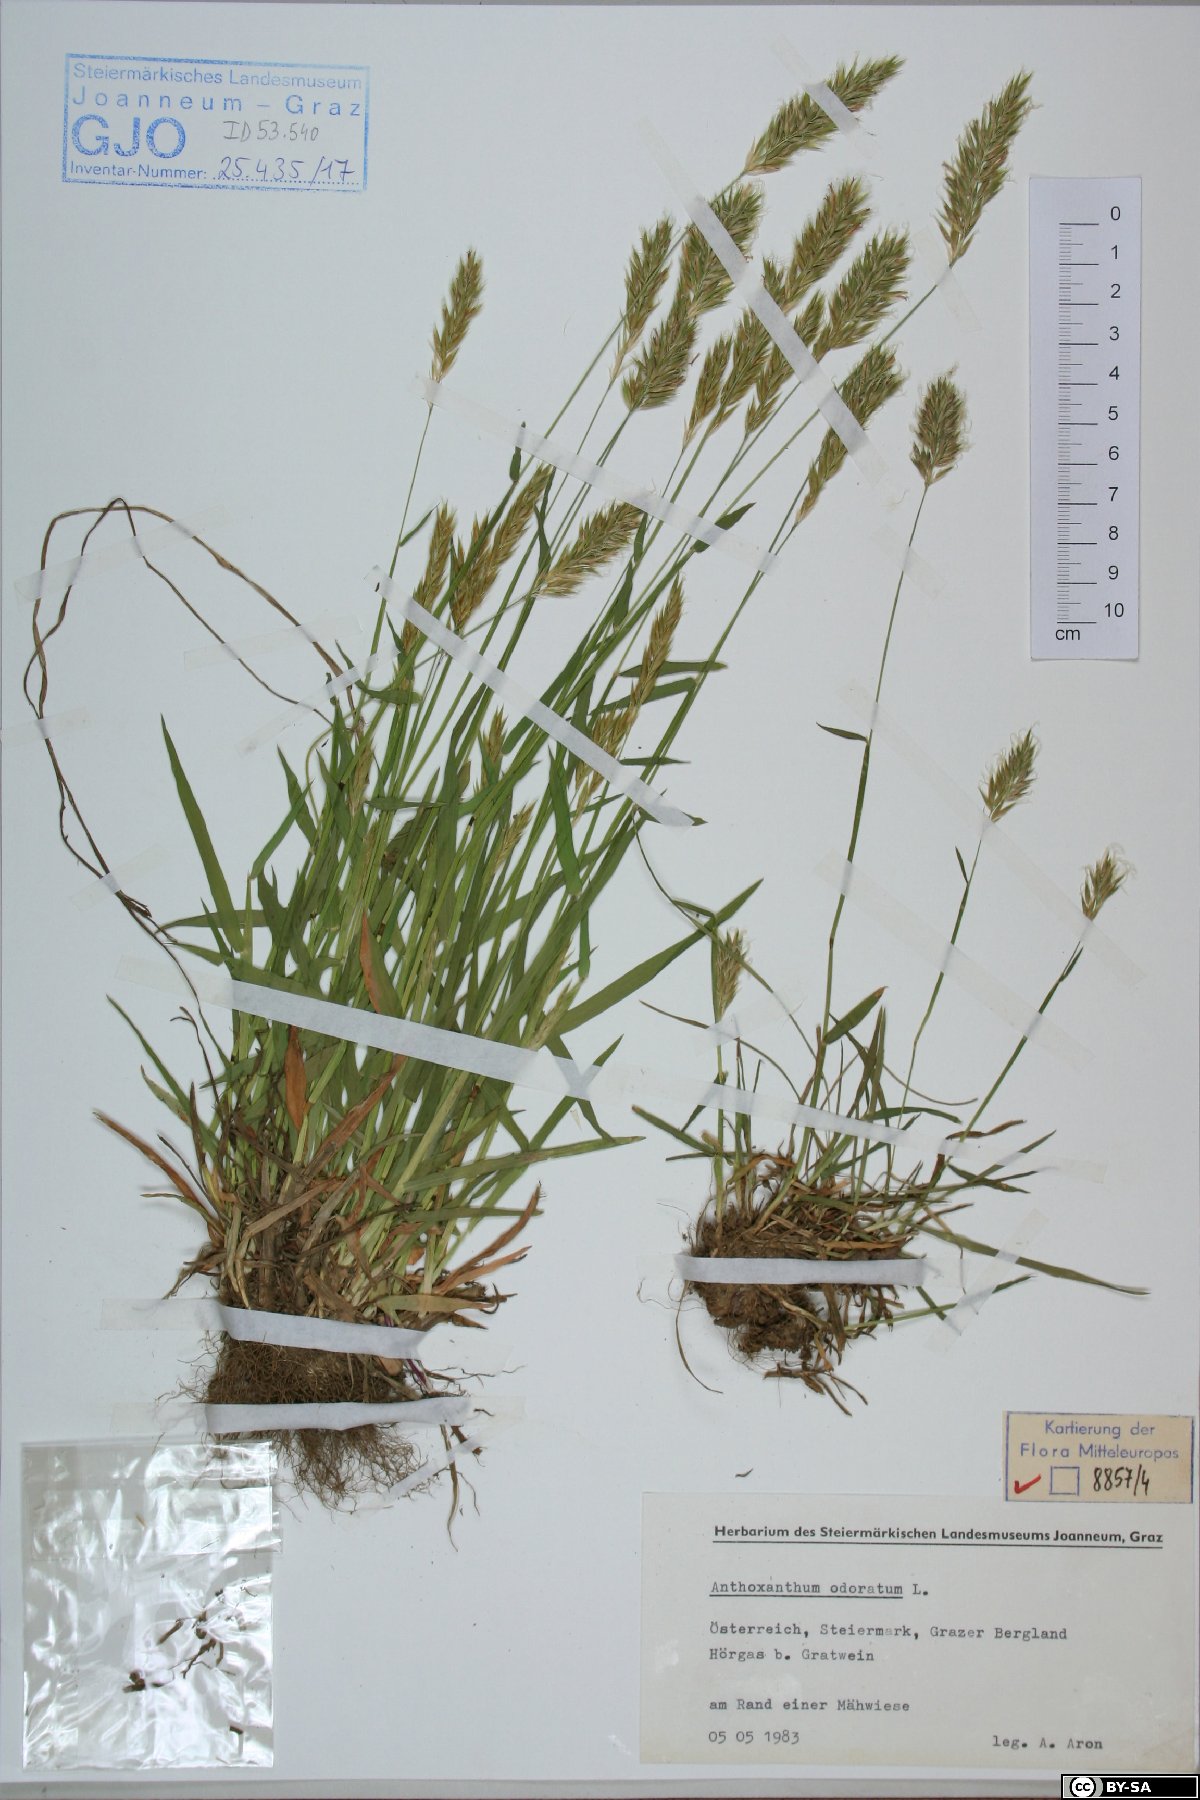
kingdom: Plantae
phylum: Tracheophyta
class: Liliopsida
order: Poales
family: Poaceae
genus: Anthoxanthum
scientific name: Anthoxanthum odoratum
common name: Sweet vernalgrass
